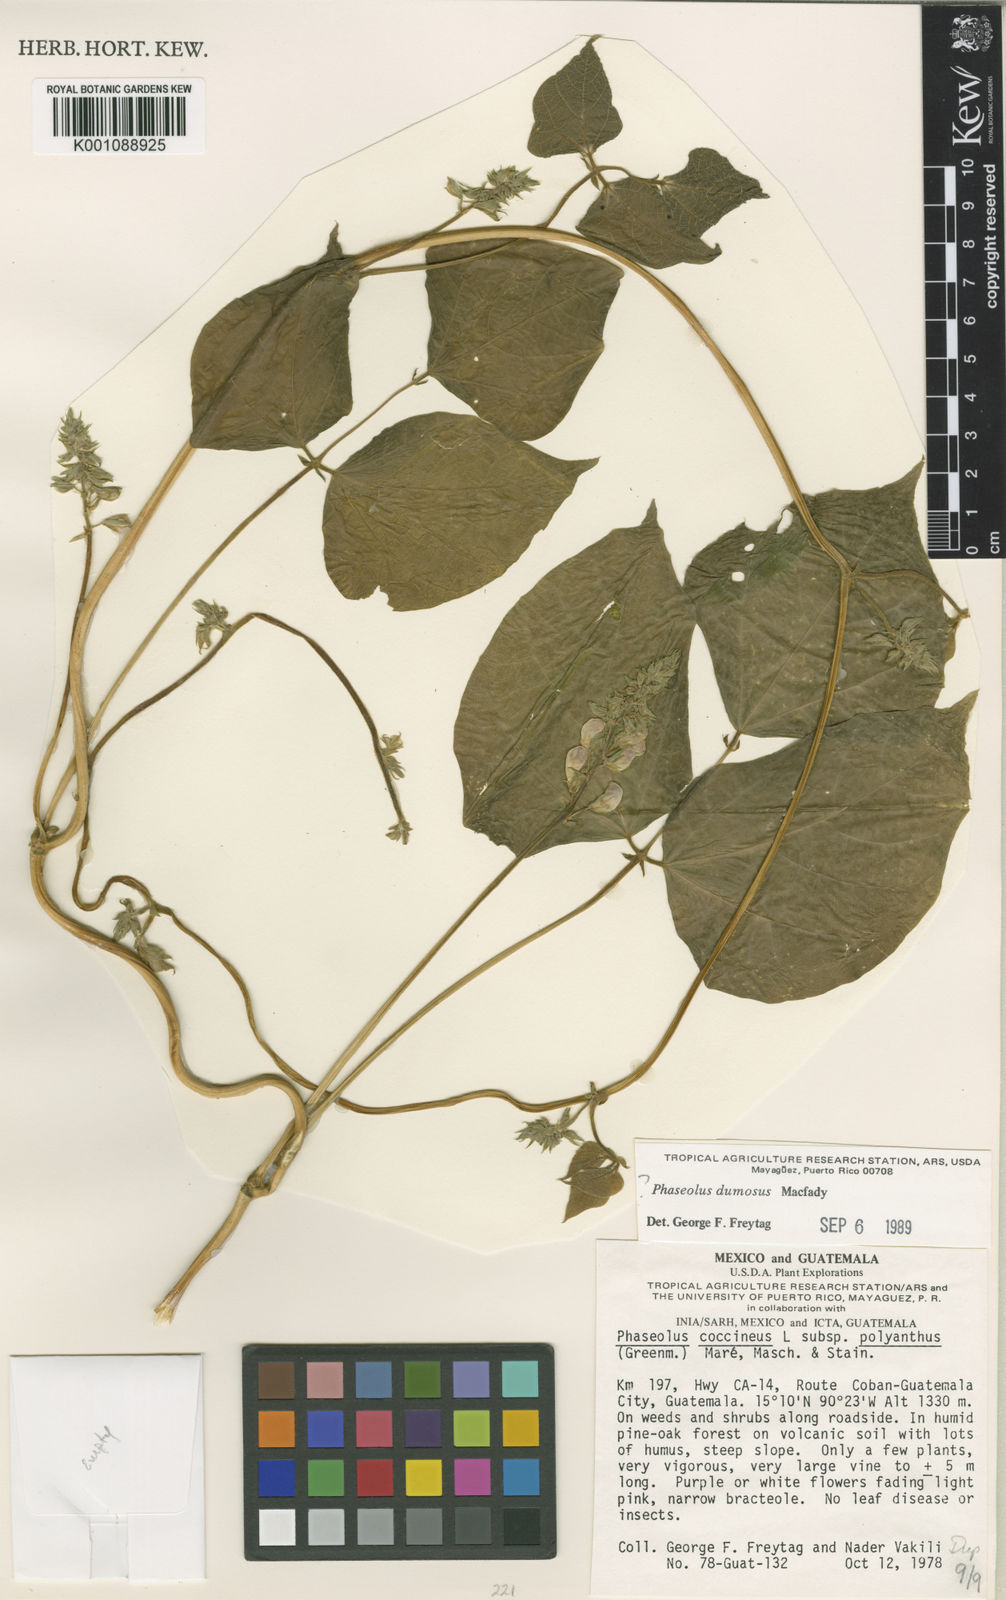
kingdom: Plantae
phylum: Tracheophyta
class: Magnoliopsida
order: Fabales
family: Fabaceae
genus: Phaseolus
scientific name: Phaseolus dumosus
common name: Year bean
